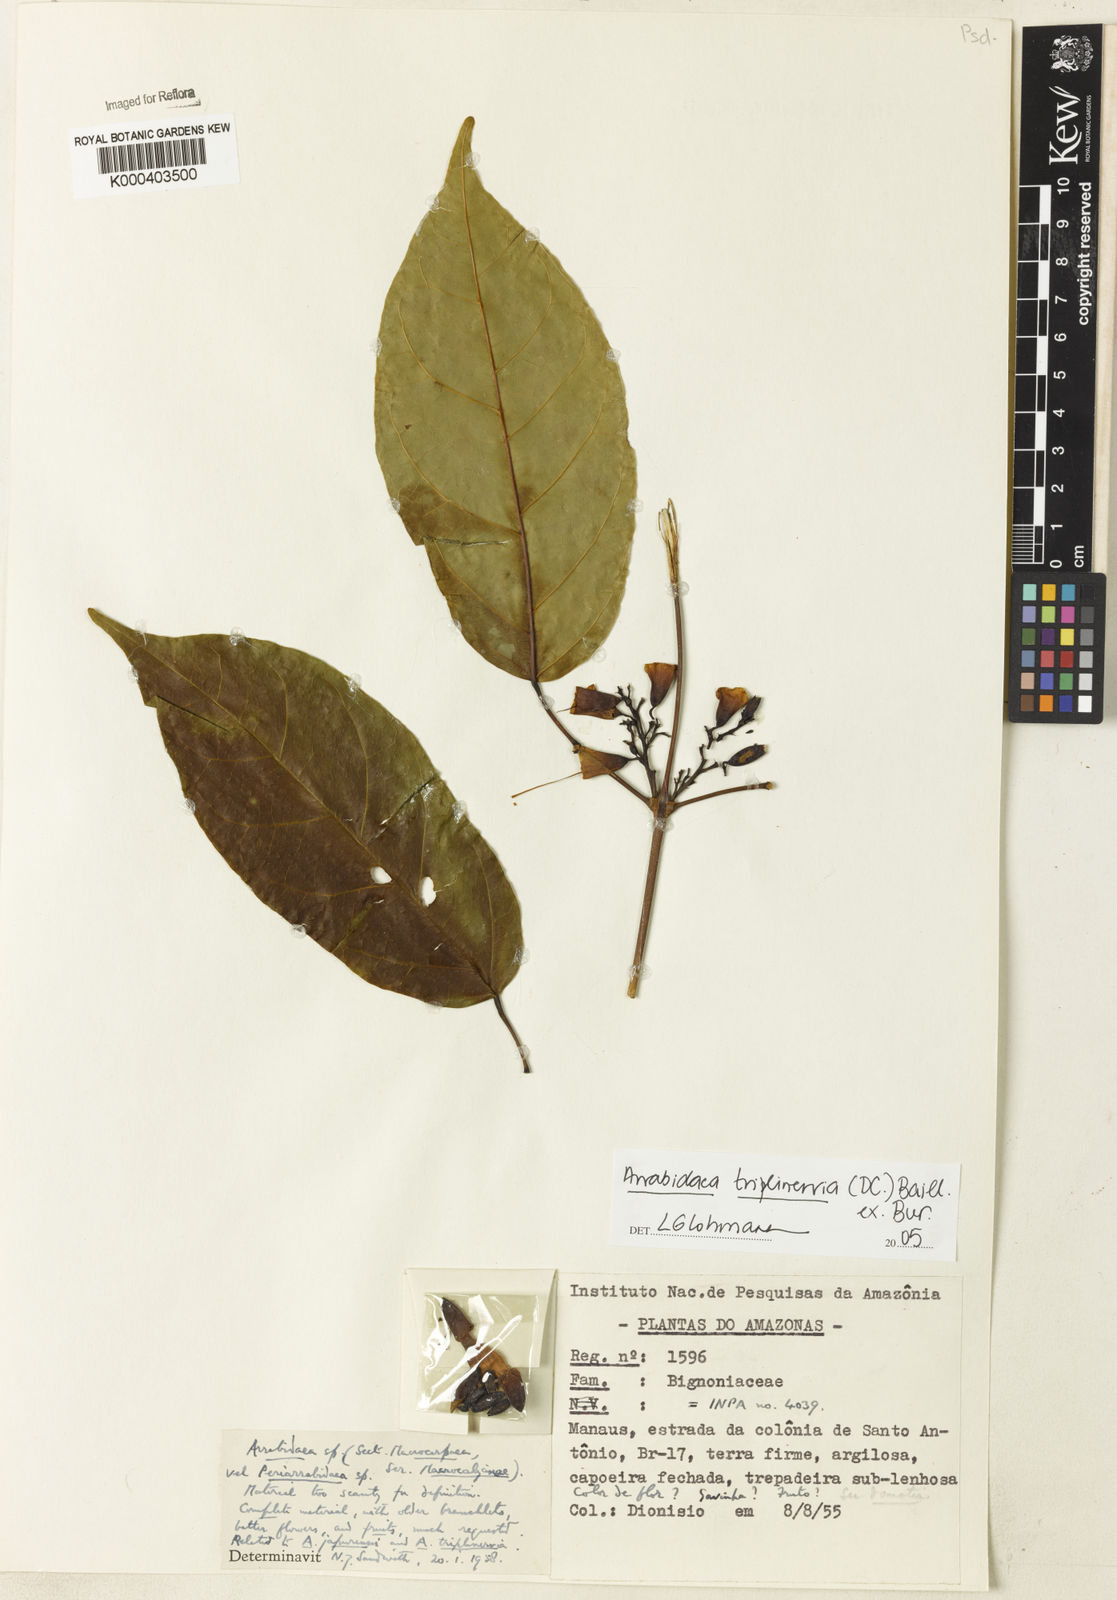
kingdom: Plantae
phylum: Tracheophyta
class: Magnoliopsida
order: Rosales
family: Rhamnaceae
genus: Arrabidaea
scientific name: Arrabidaea
